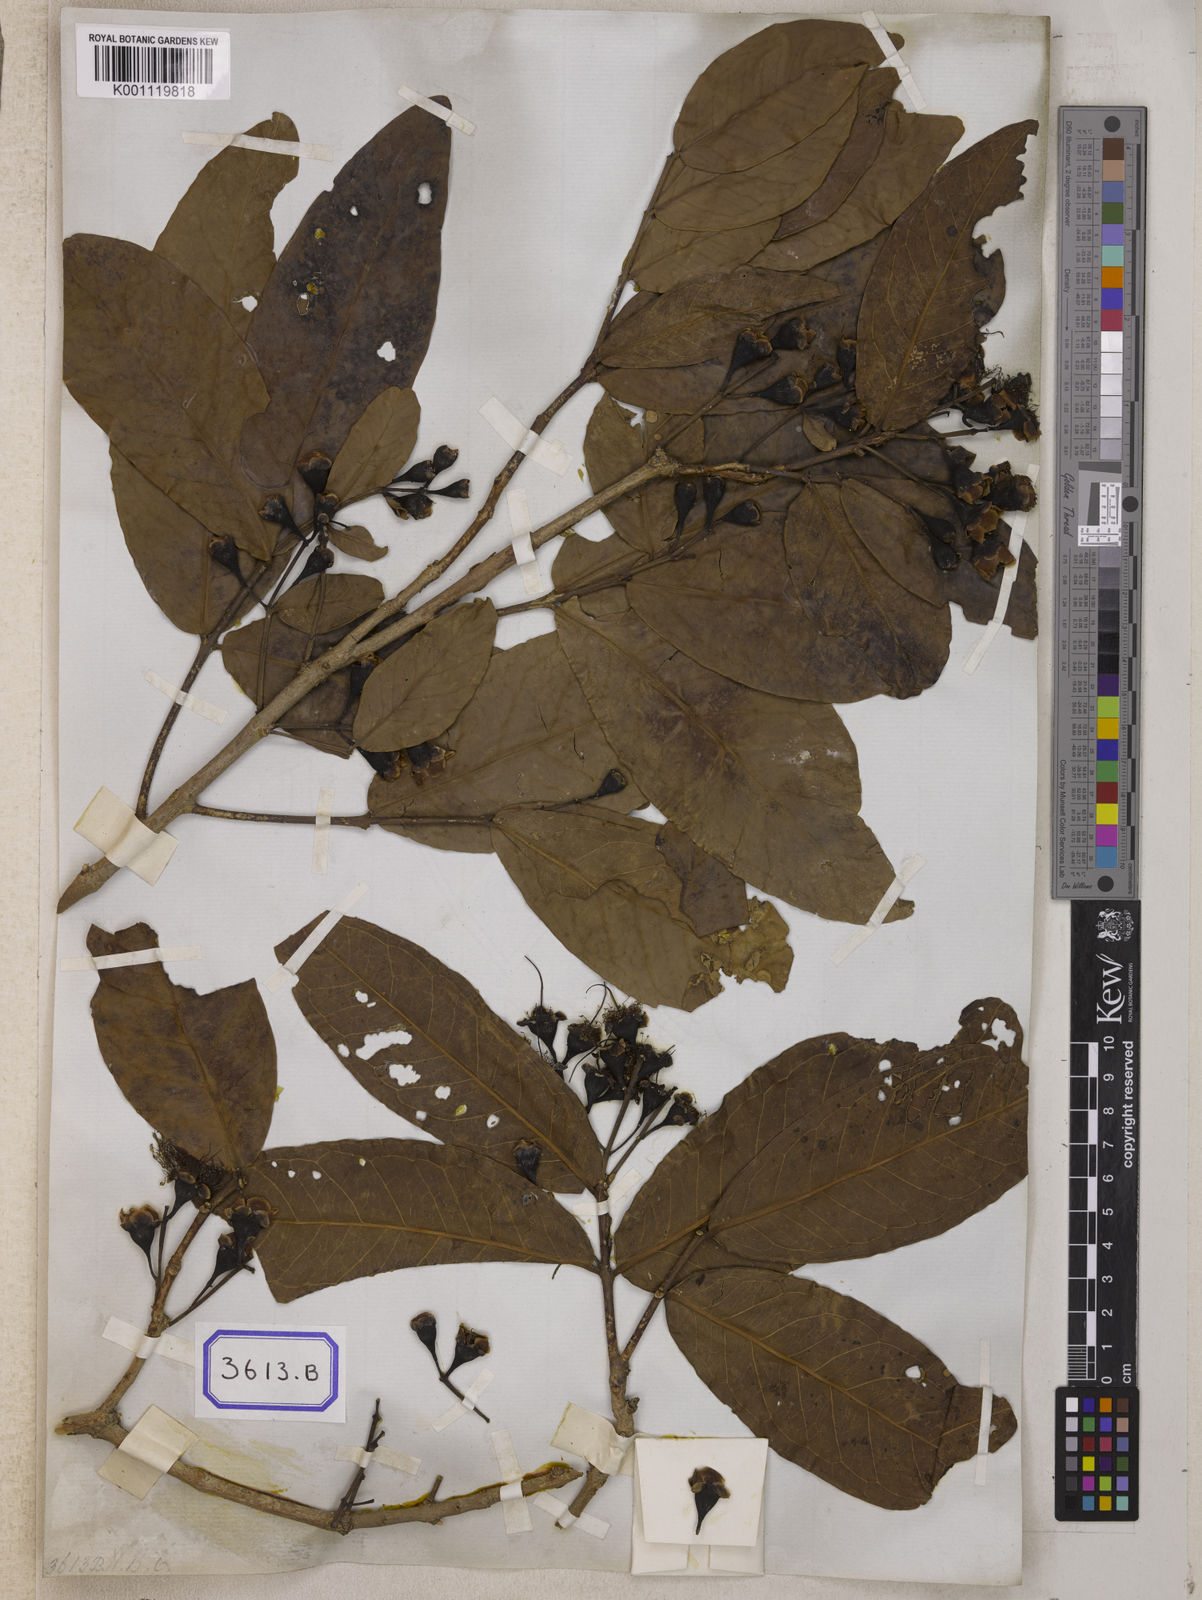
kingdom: Plantae
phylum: Tracheophyta
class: Magnoliopsida
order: Myrtales
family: Myrtaceae
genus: Syzygium
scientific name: Syzygium aqueum
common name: Water-apple
